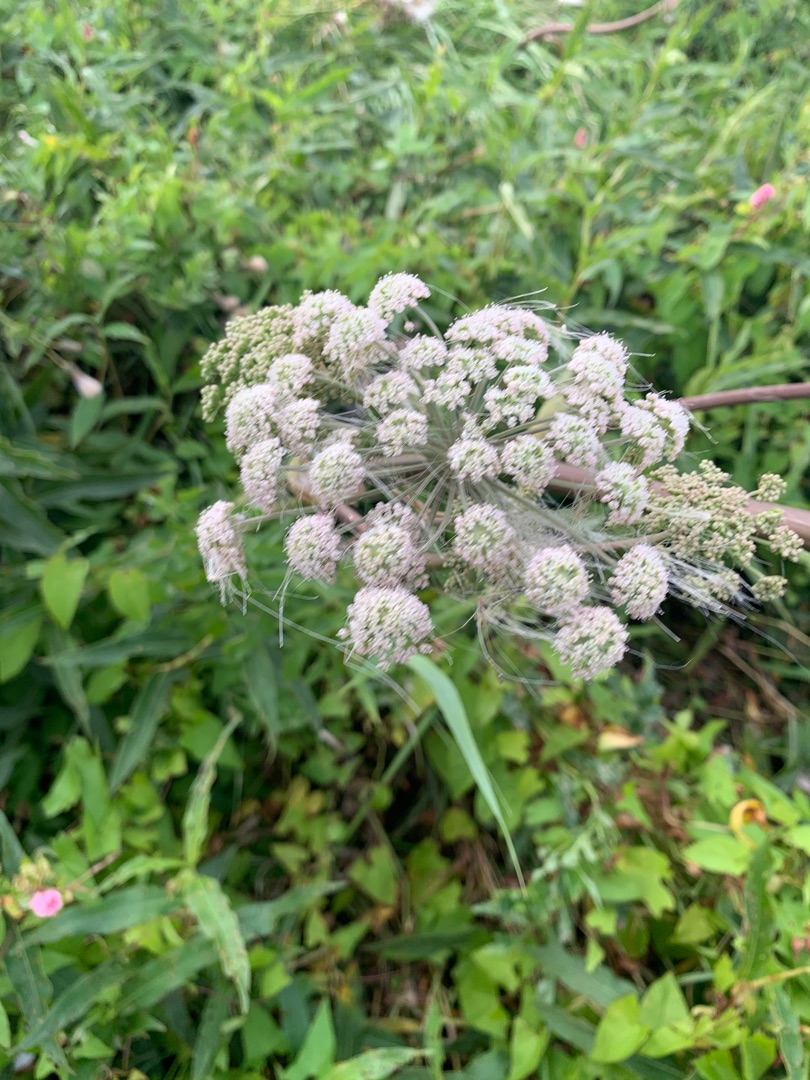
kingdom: Plantae
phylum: Tracheophyta
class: Magnoliopsida
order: Apiales
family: Apiaceae
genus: Angelica
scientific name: Angelica sylvestris
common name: Angelik
